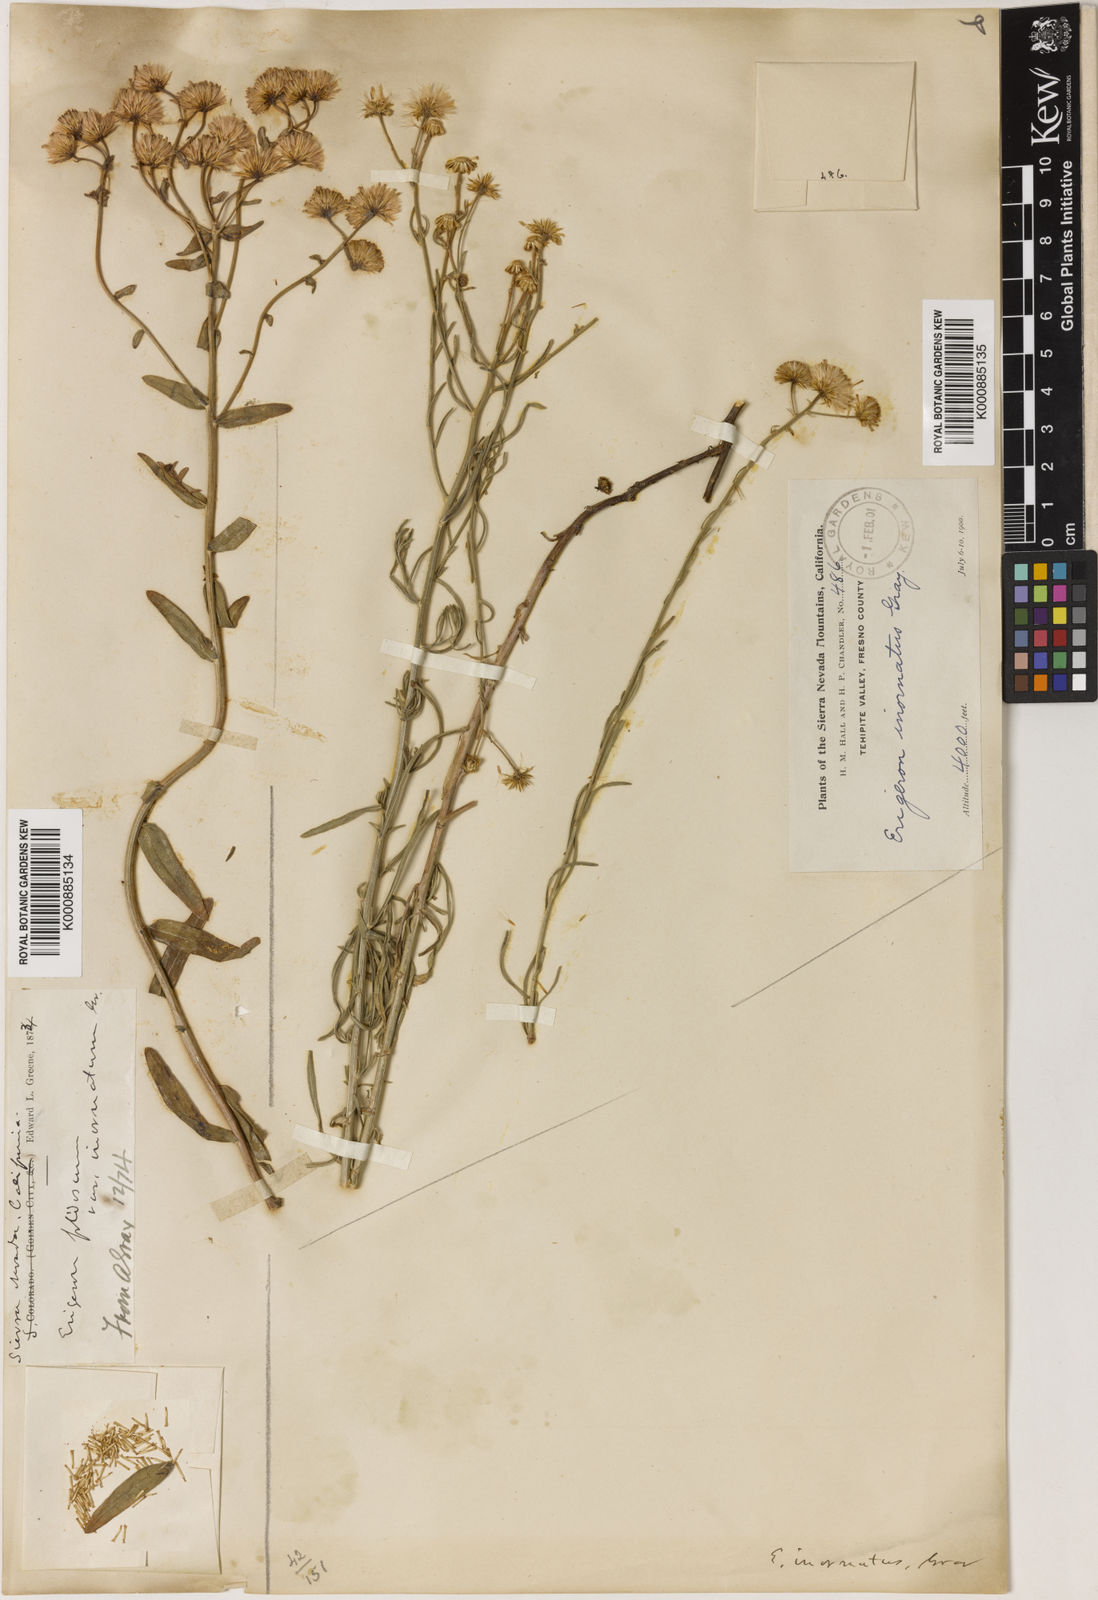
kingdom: Plantae
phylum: Tracheophyta
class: Magnoliopsida
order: Asterales
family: Asteraceae
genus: Erigeron
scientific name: Erigeron
